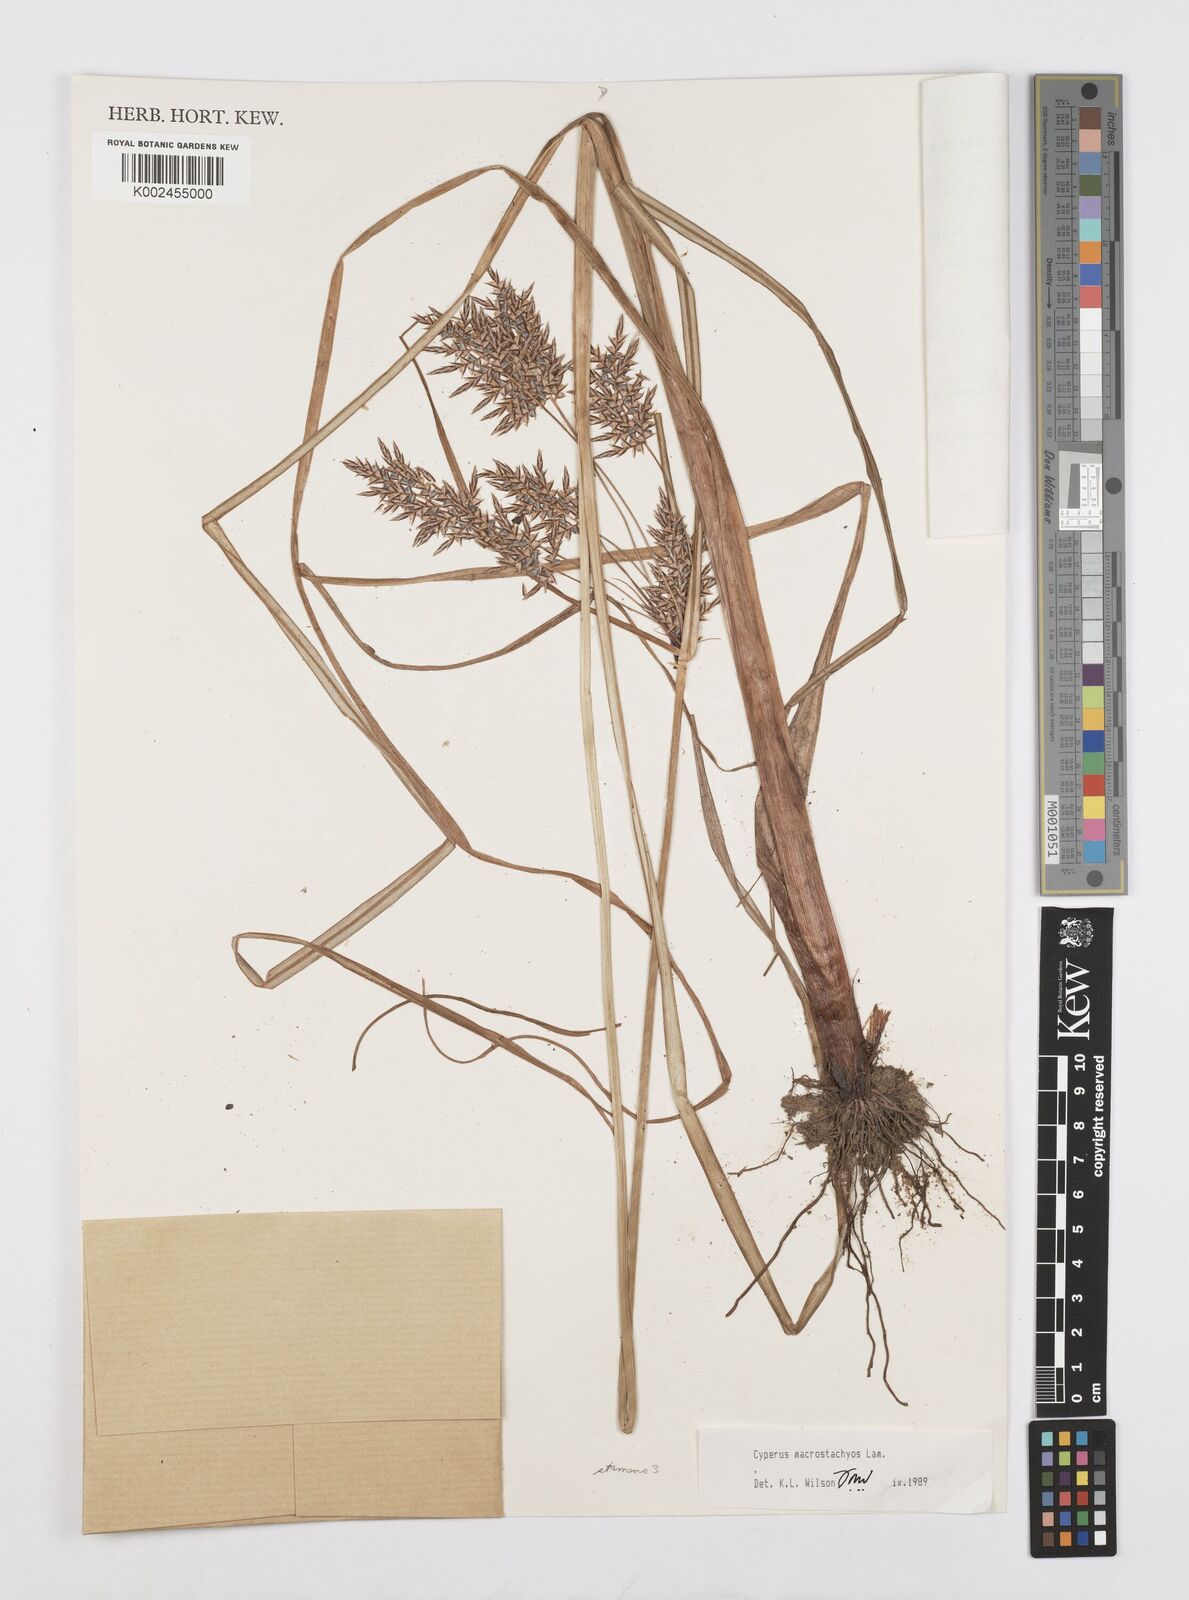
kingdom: Plantae
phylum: Tracheophyta
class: Liliopsida
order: Poales
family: Cyperaceae
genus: Cyperus
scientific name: Cyperus macrostachyos
